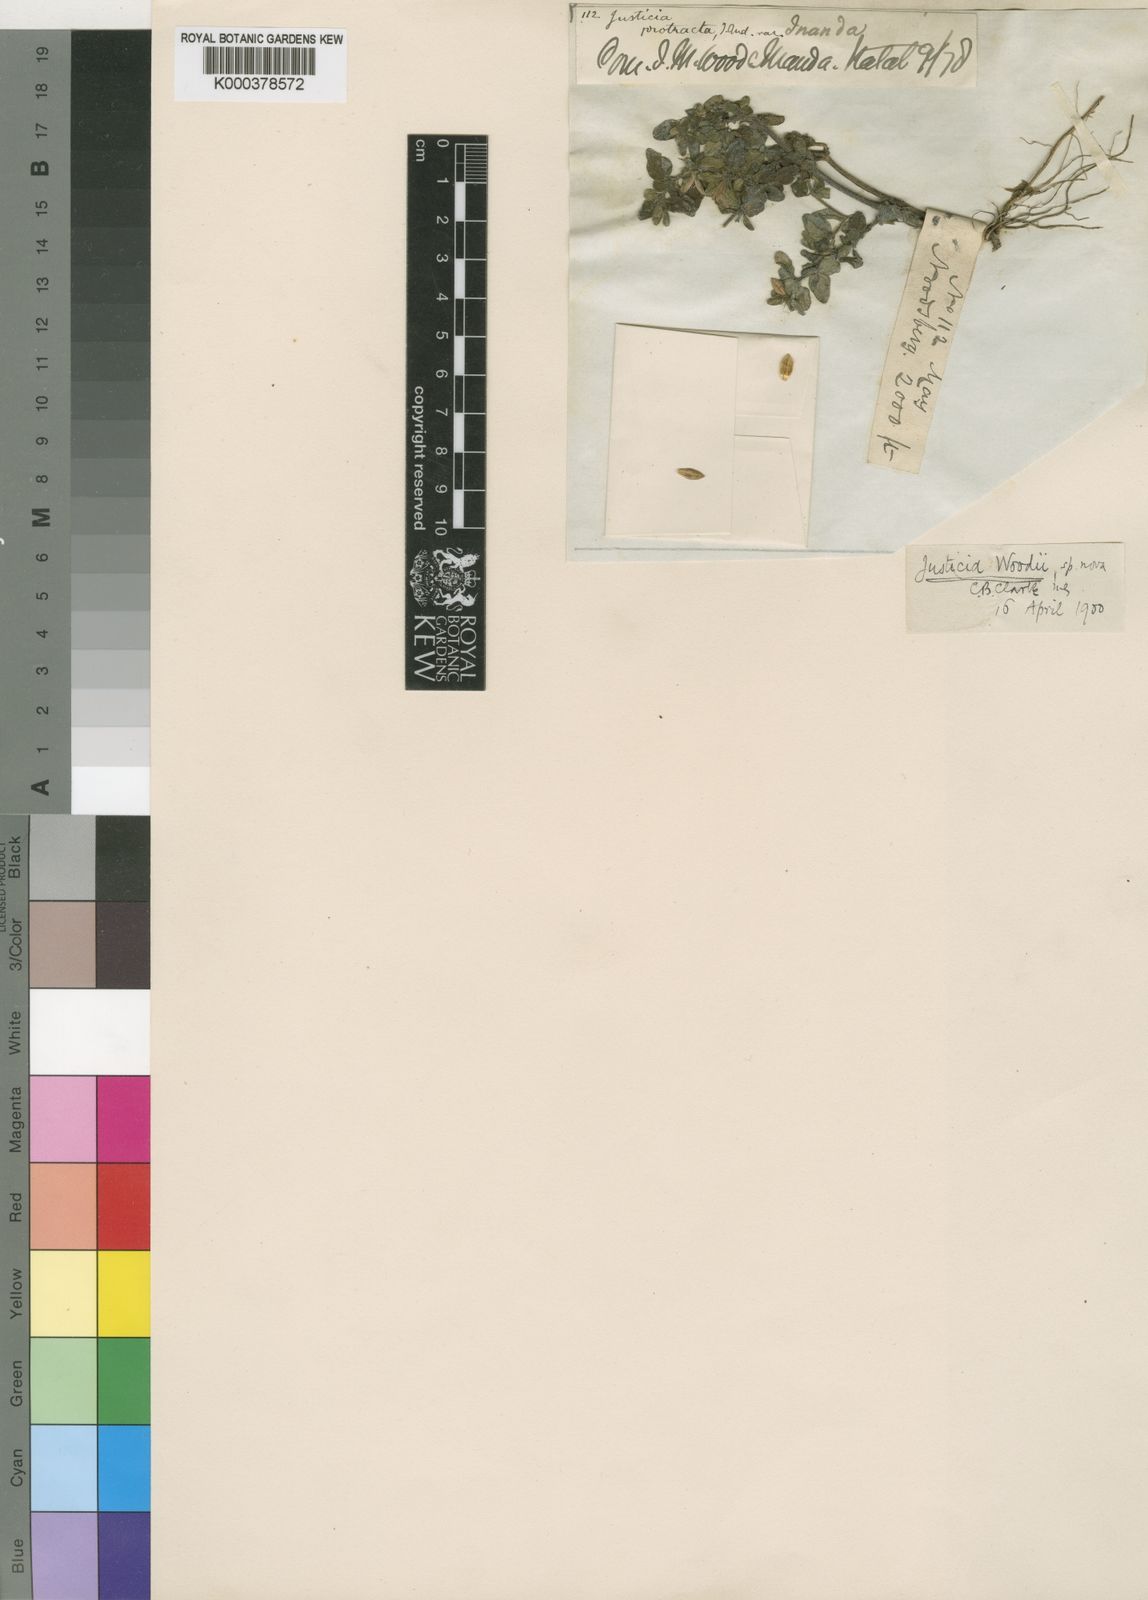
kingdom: Plantae
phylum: Tracheophyta
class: Magnoliopsida
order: Lamiales
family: Acanthaceae
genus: Justicia
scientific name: Justicia protracta
